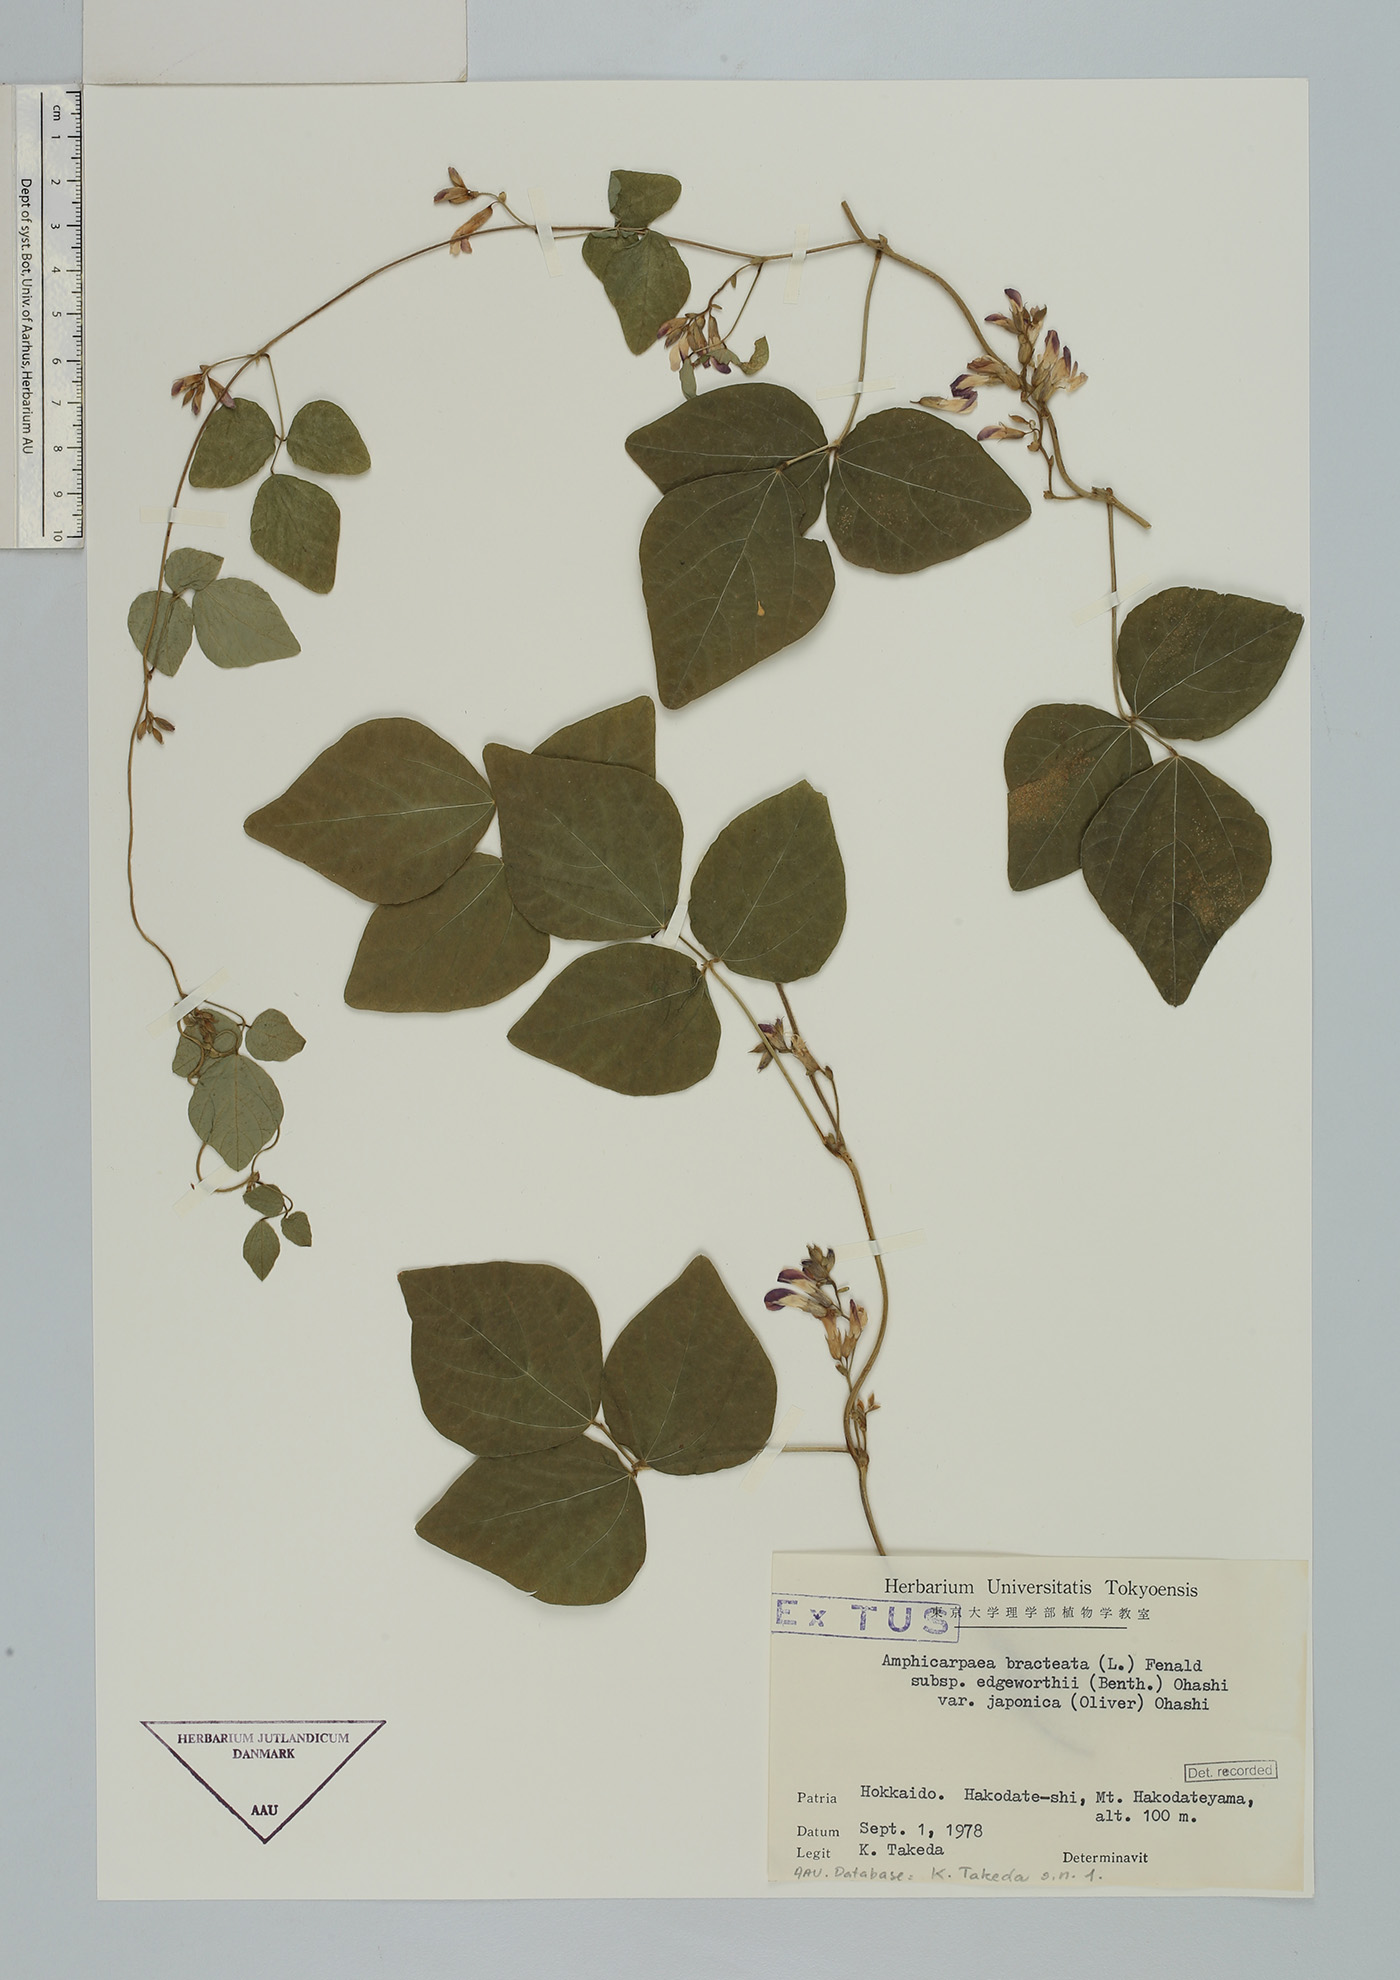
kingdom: Plantae
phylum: Tracheophyta
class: Magnoliopsida
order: Fabales
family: Fabaceae
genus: Amphicarpaea
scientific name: Amphicarpaea edgeworthii
